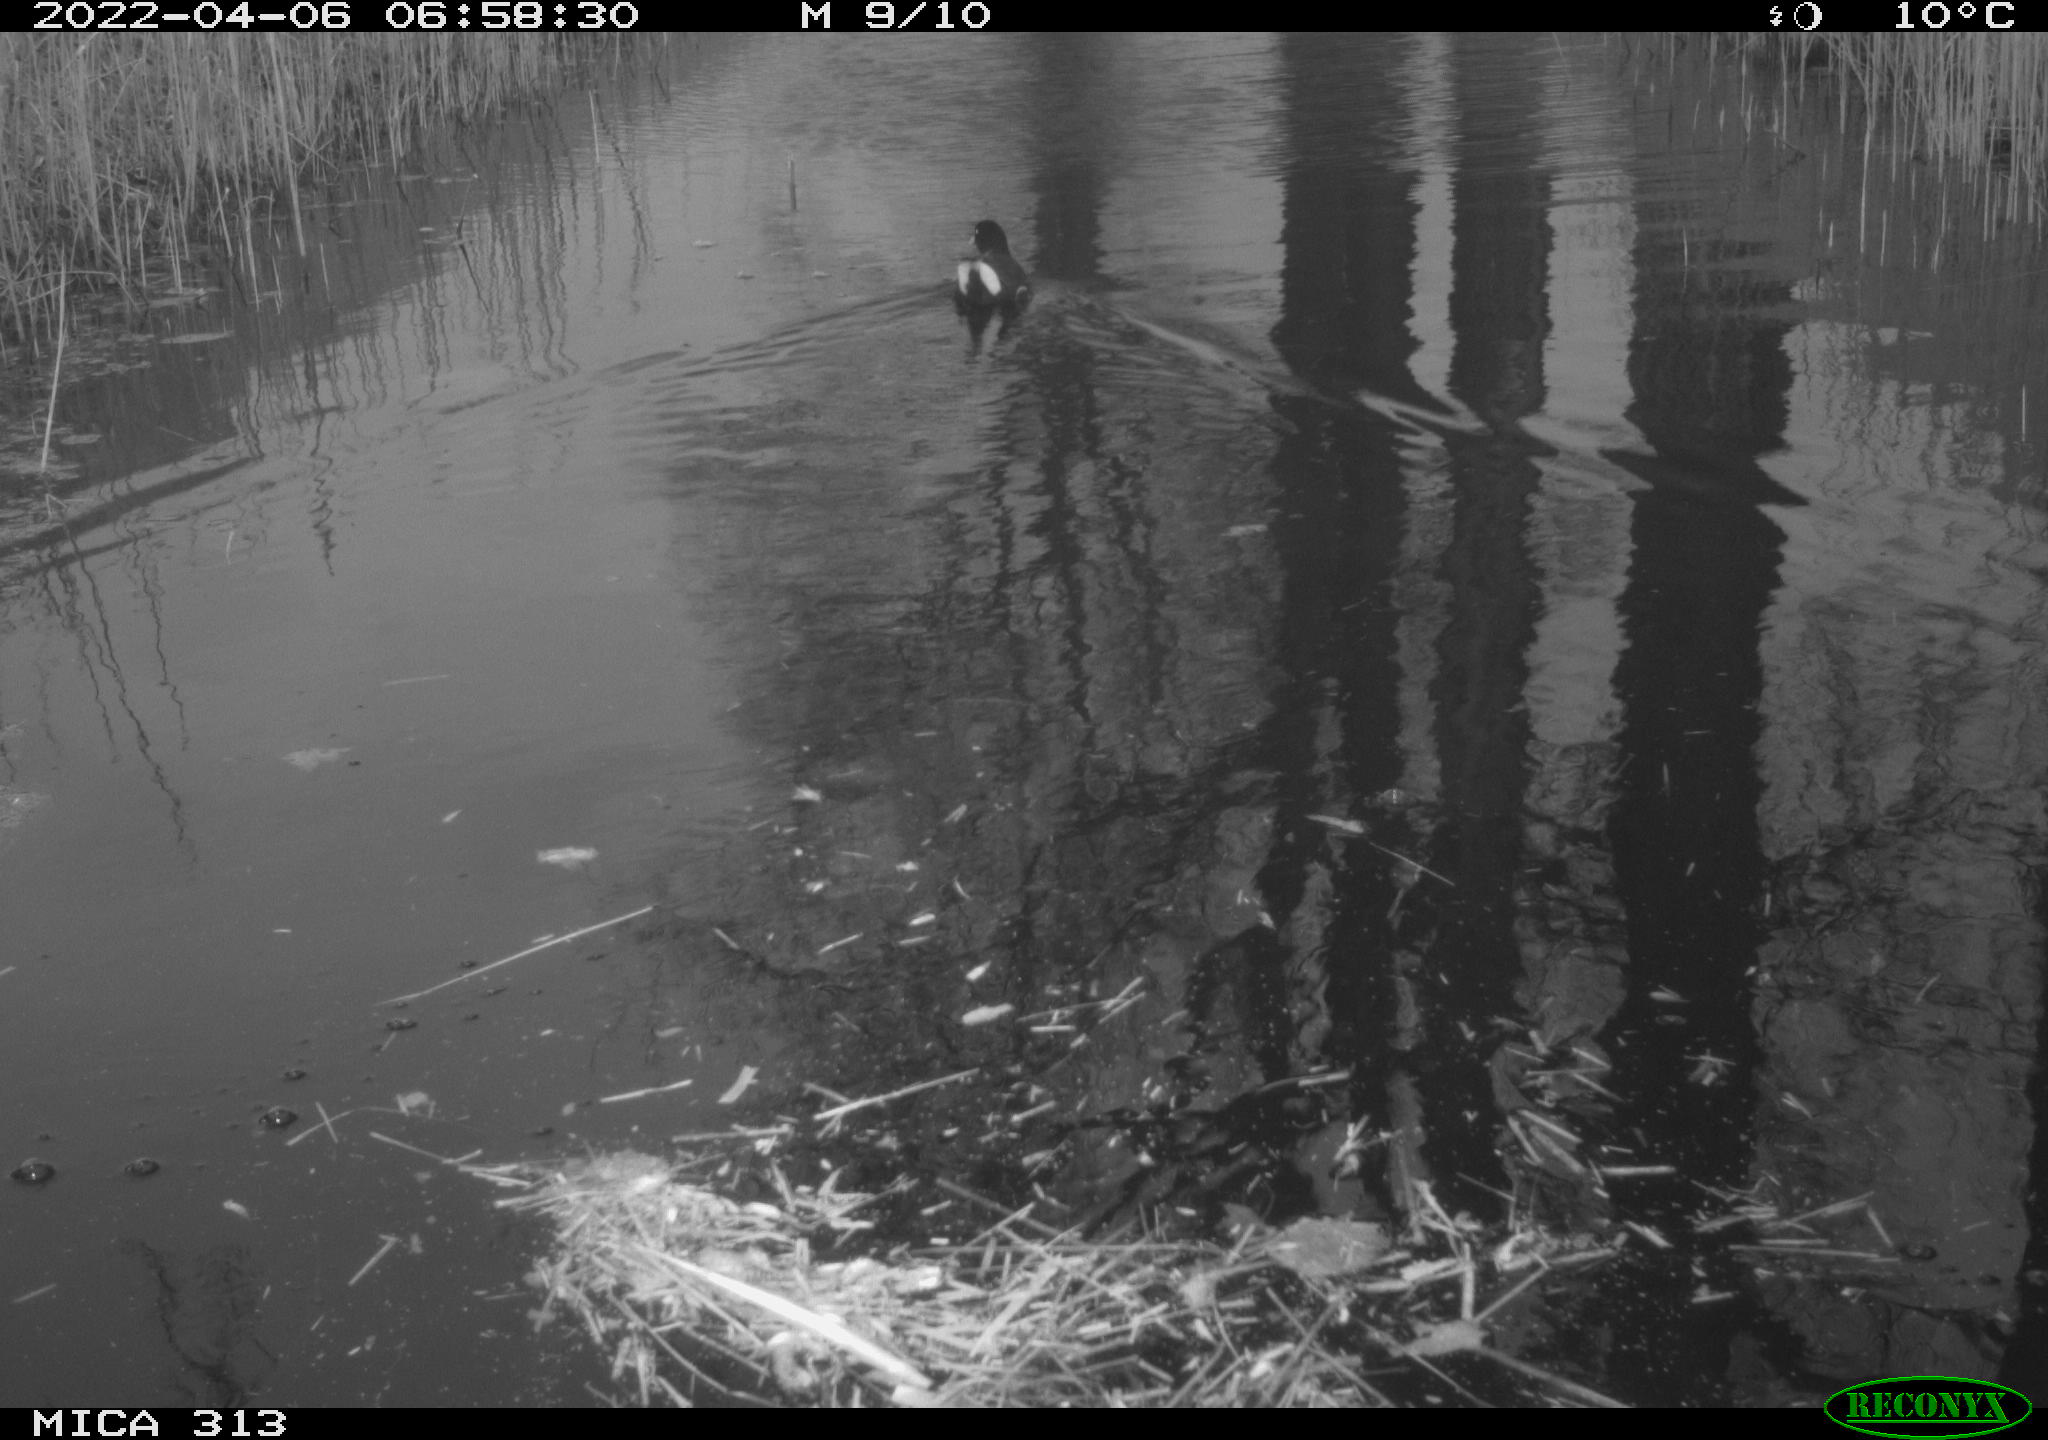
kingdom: Animalia
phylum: Chordata
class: Aves
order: Gruiformes
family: Rallidae
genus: Gallinula
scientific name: Gallinula chloropus
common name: Common moorhen
